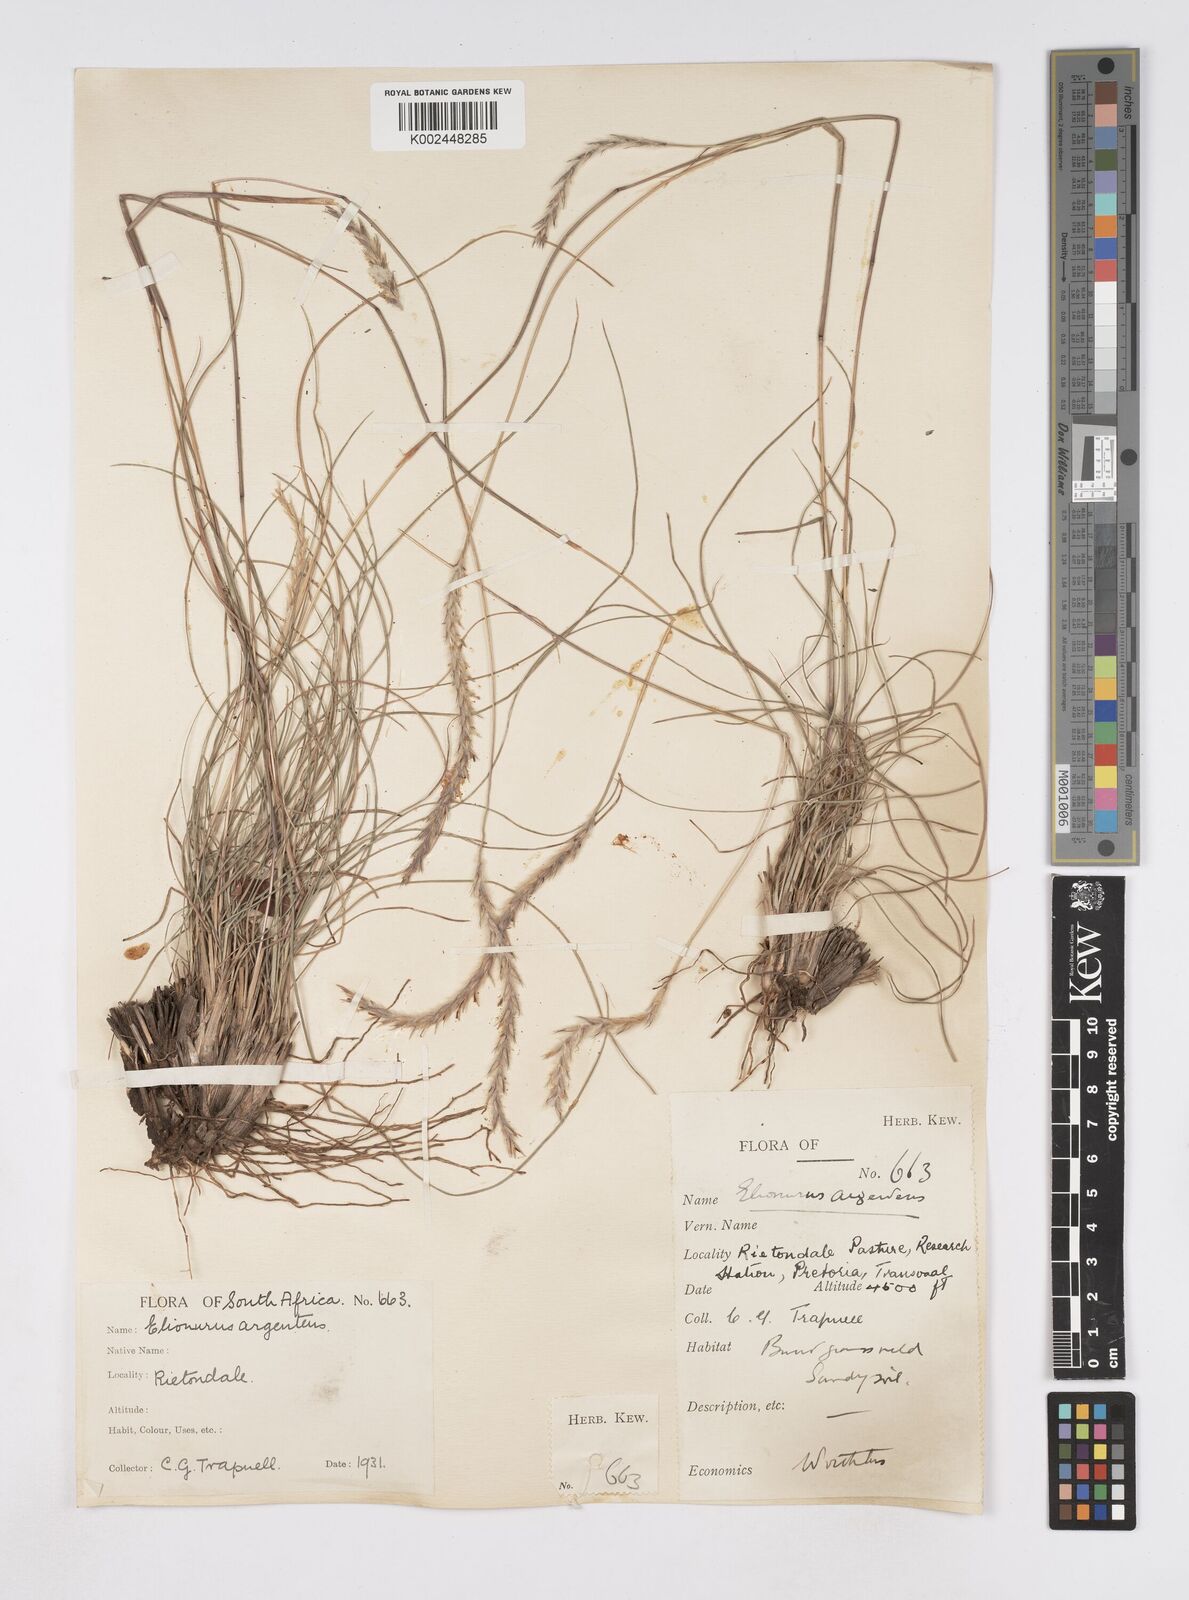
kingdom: Plantae
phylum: Tracheophyta
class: Liliopsida
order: Poales
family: Poaceae
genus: Elionurus
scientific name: Elionurus muticus
